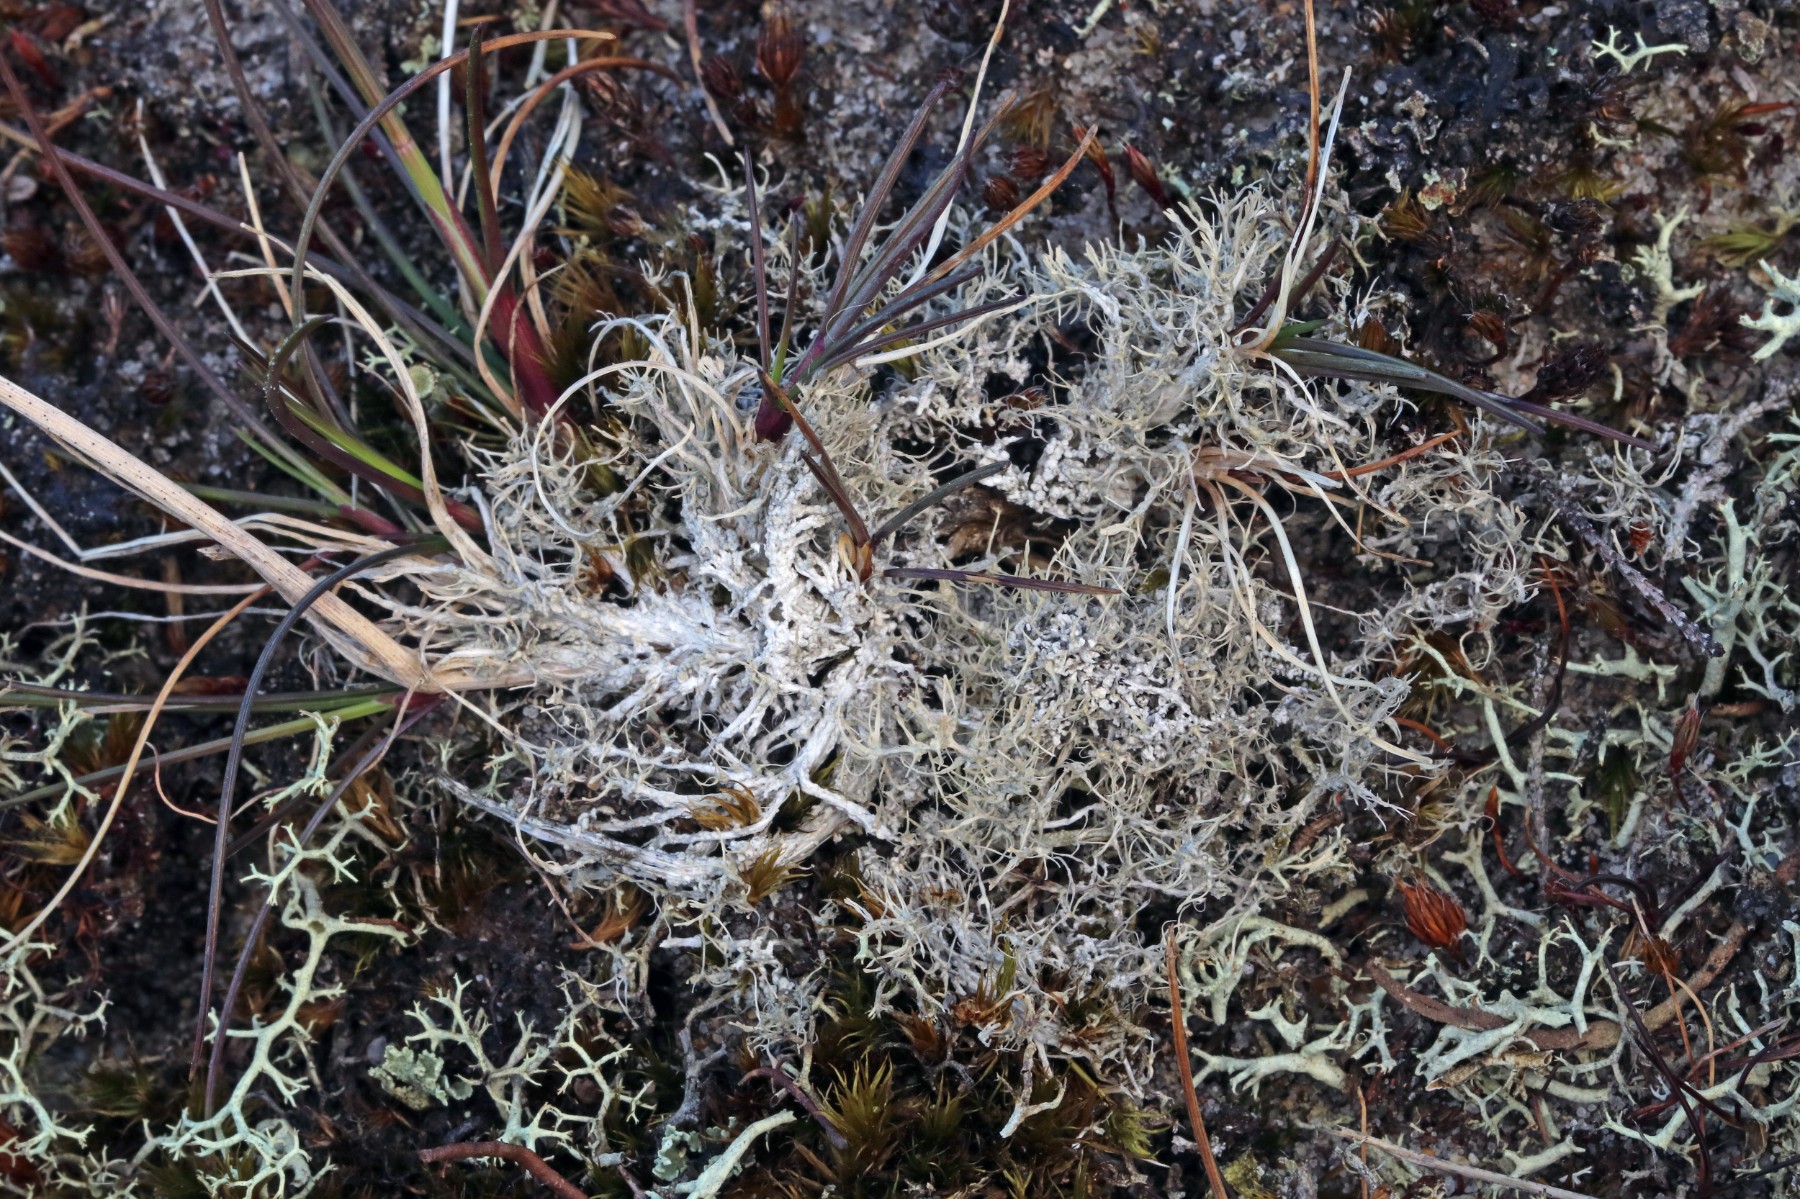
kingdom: Fungi
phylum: Ascomycota
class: Lecanoromycetes
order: Pertusariales
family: Ochrolechiaceae
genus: Ochrolechia
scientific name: Ochrolechia frigida
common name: fjeld-blegskivelav
